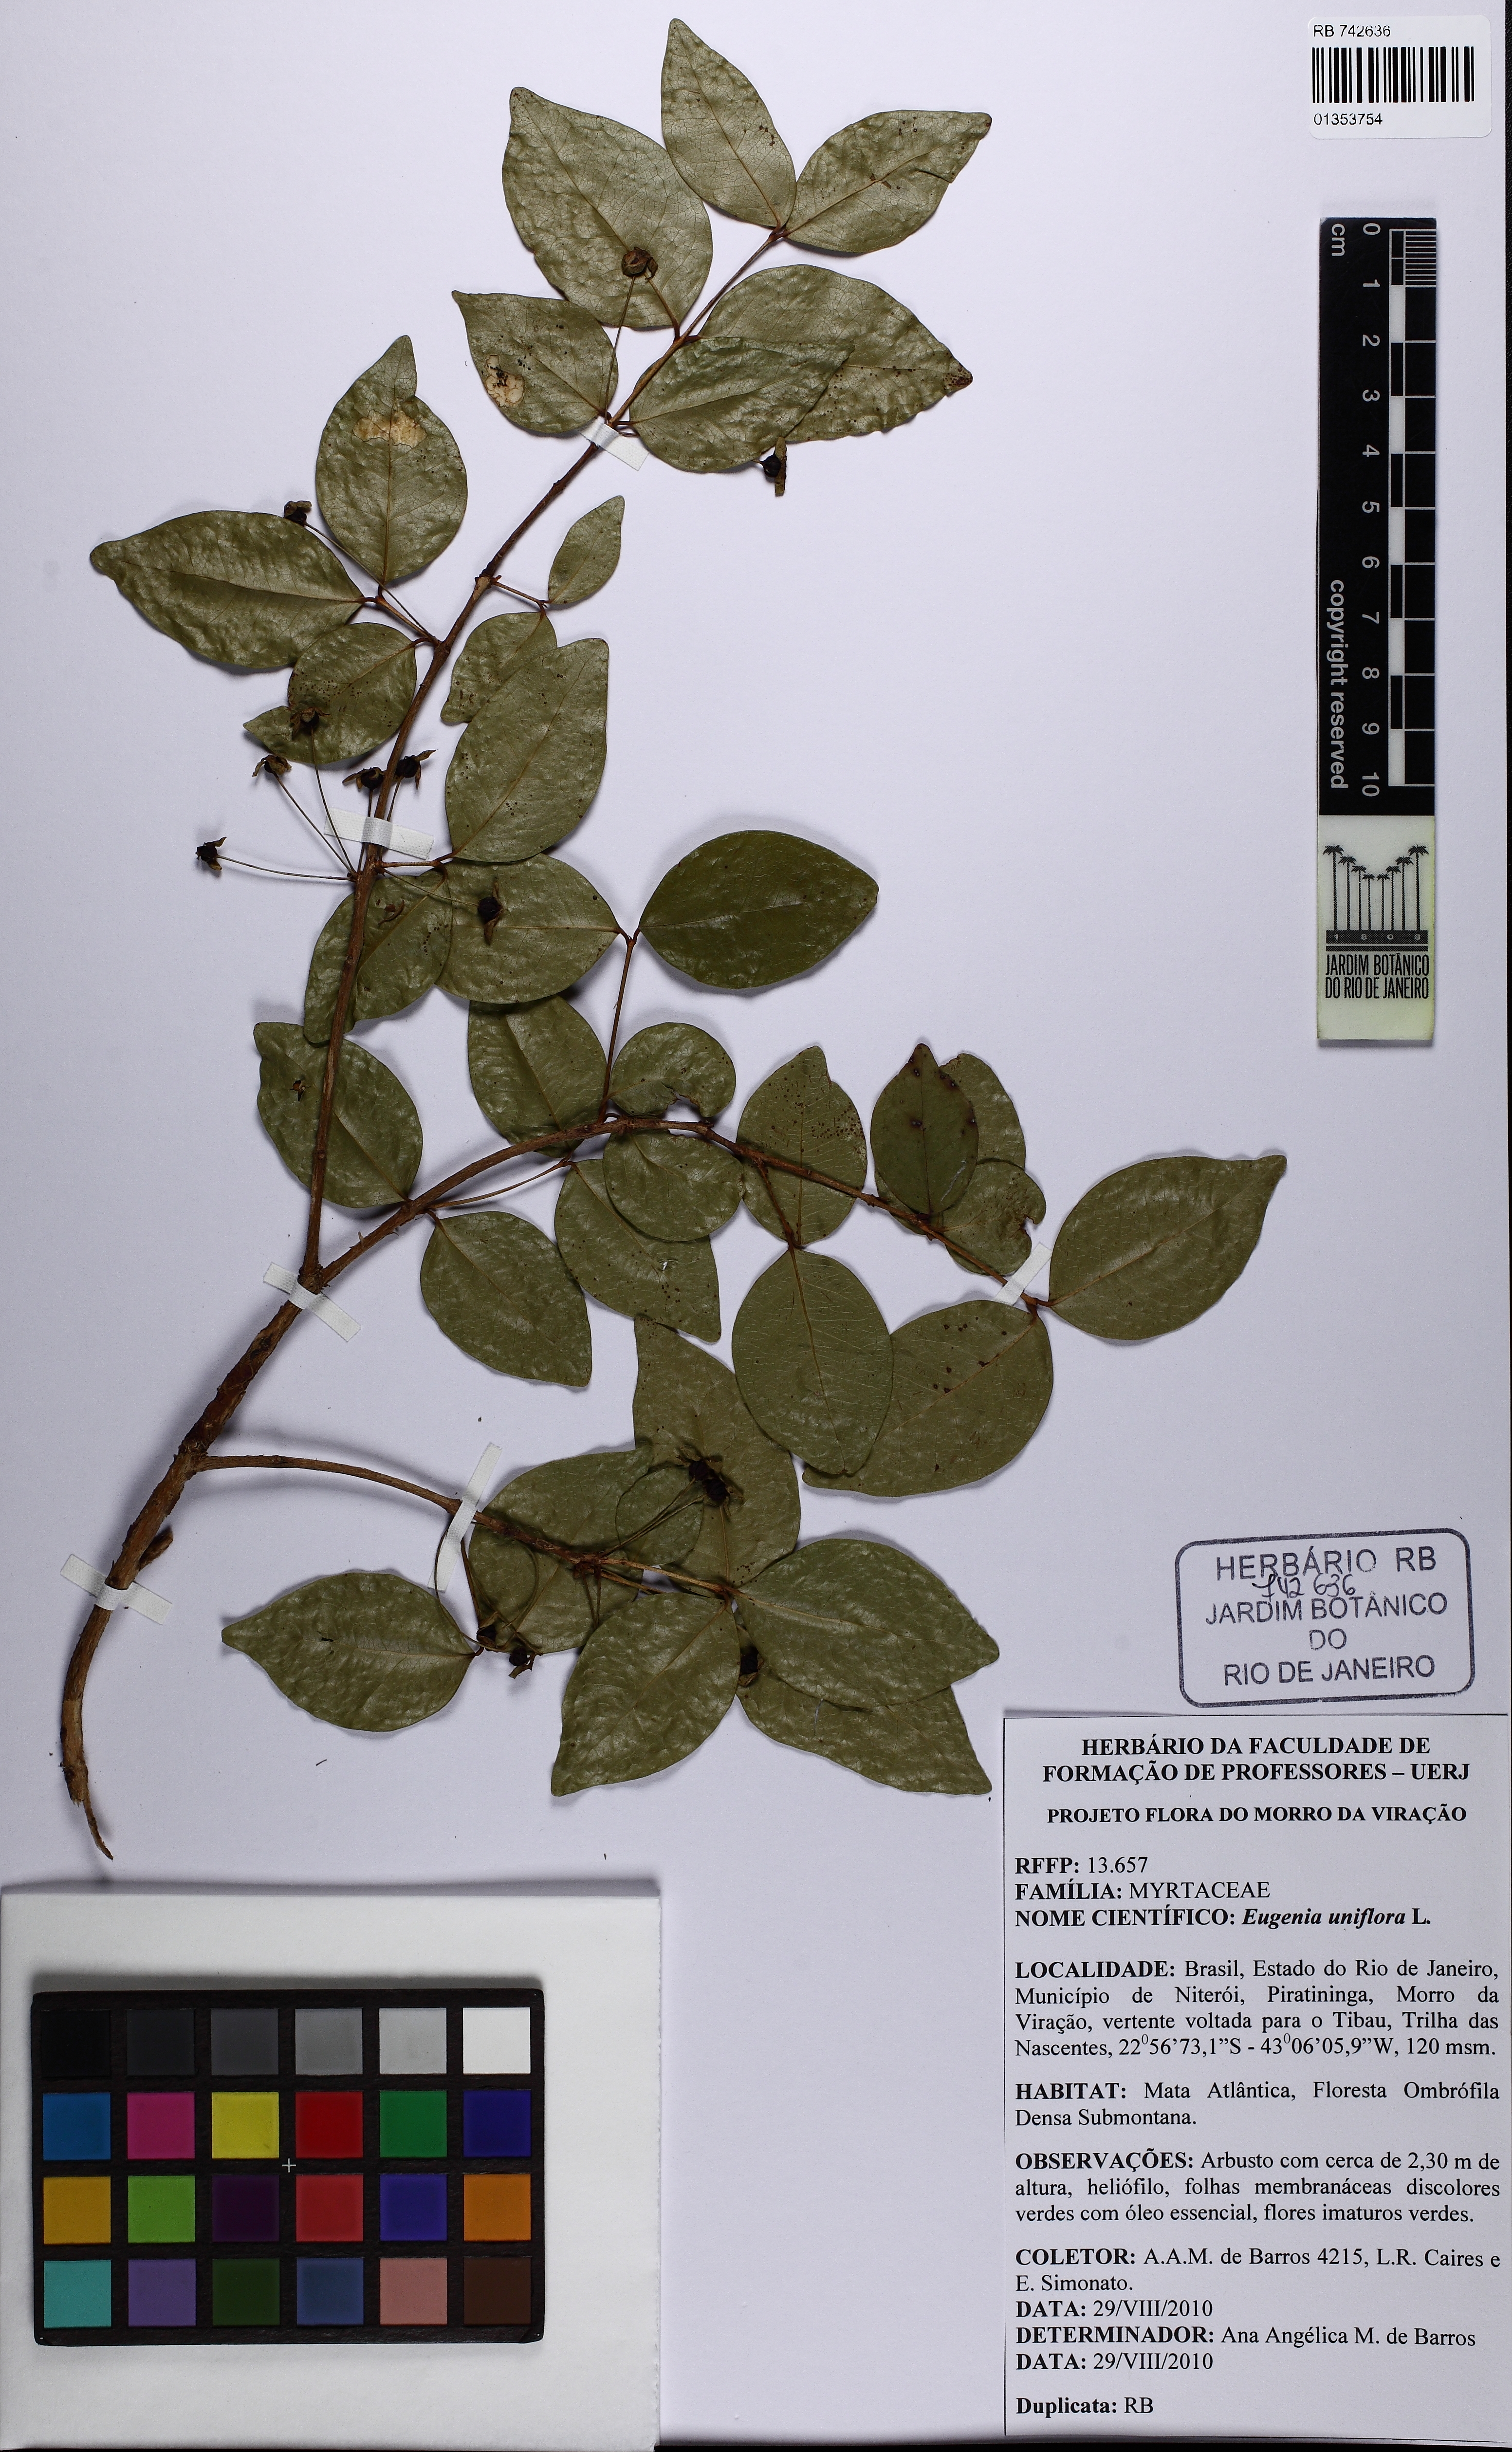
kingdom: Plantae
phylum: Tracheophyta
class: Magnoliopsida
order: Myrtales
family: Myrtaceae
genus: Eugenia
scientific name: Eugenia uniflora
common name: Surinam cherry
